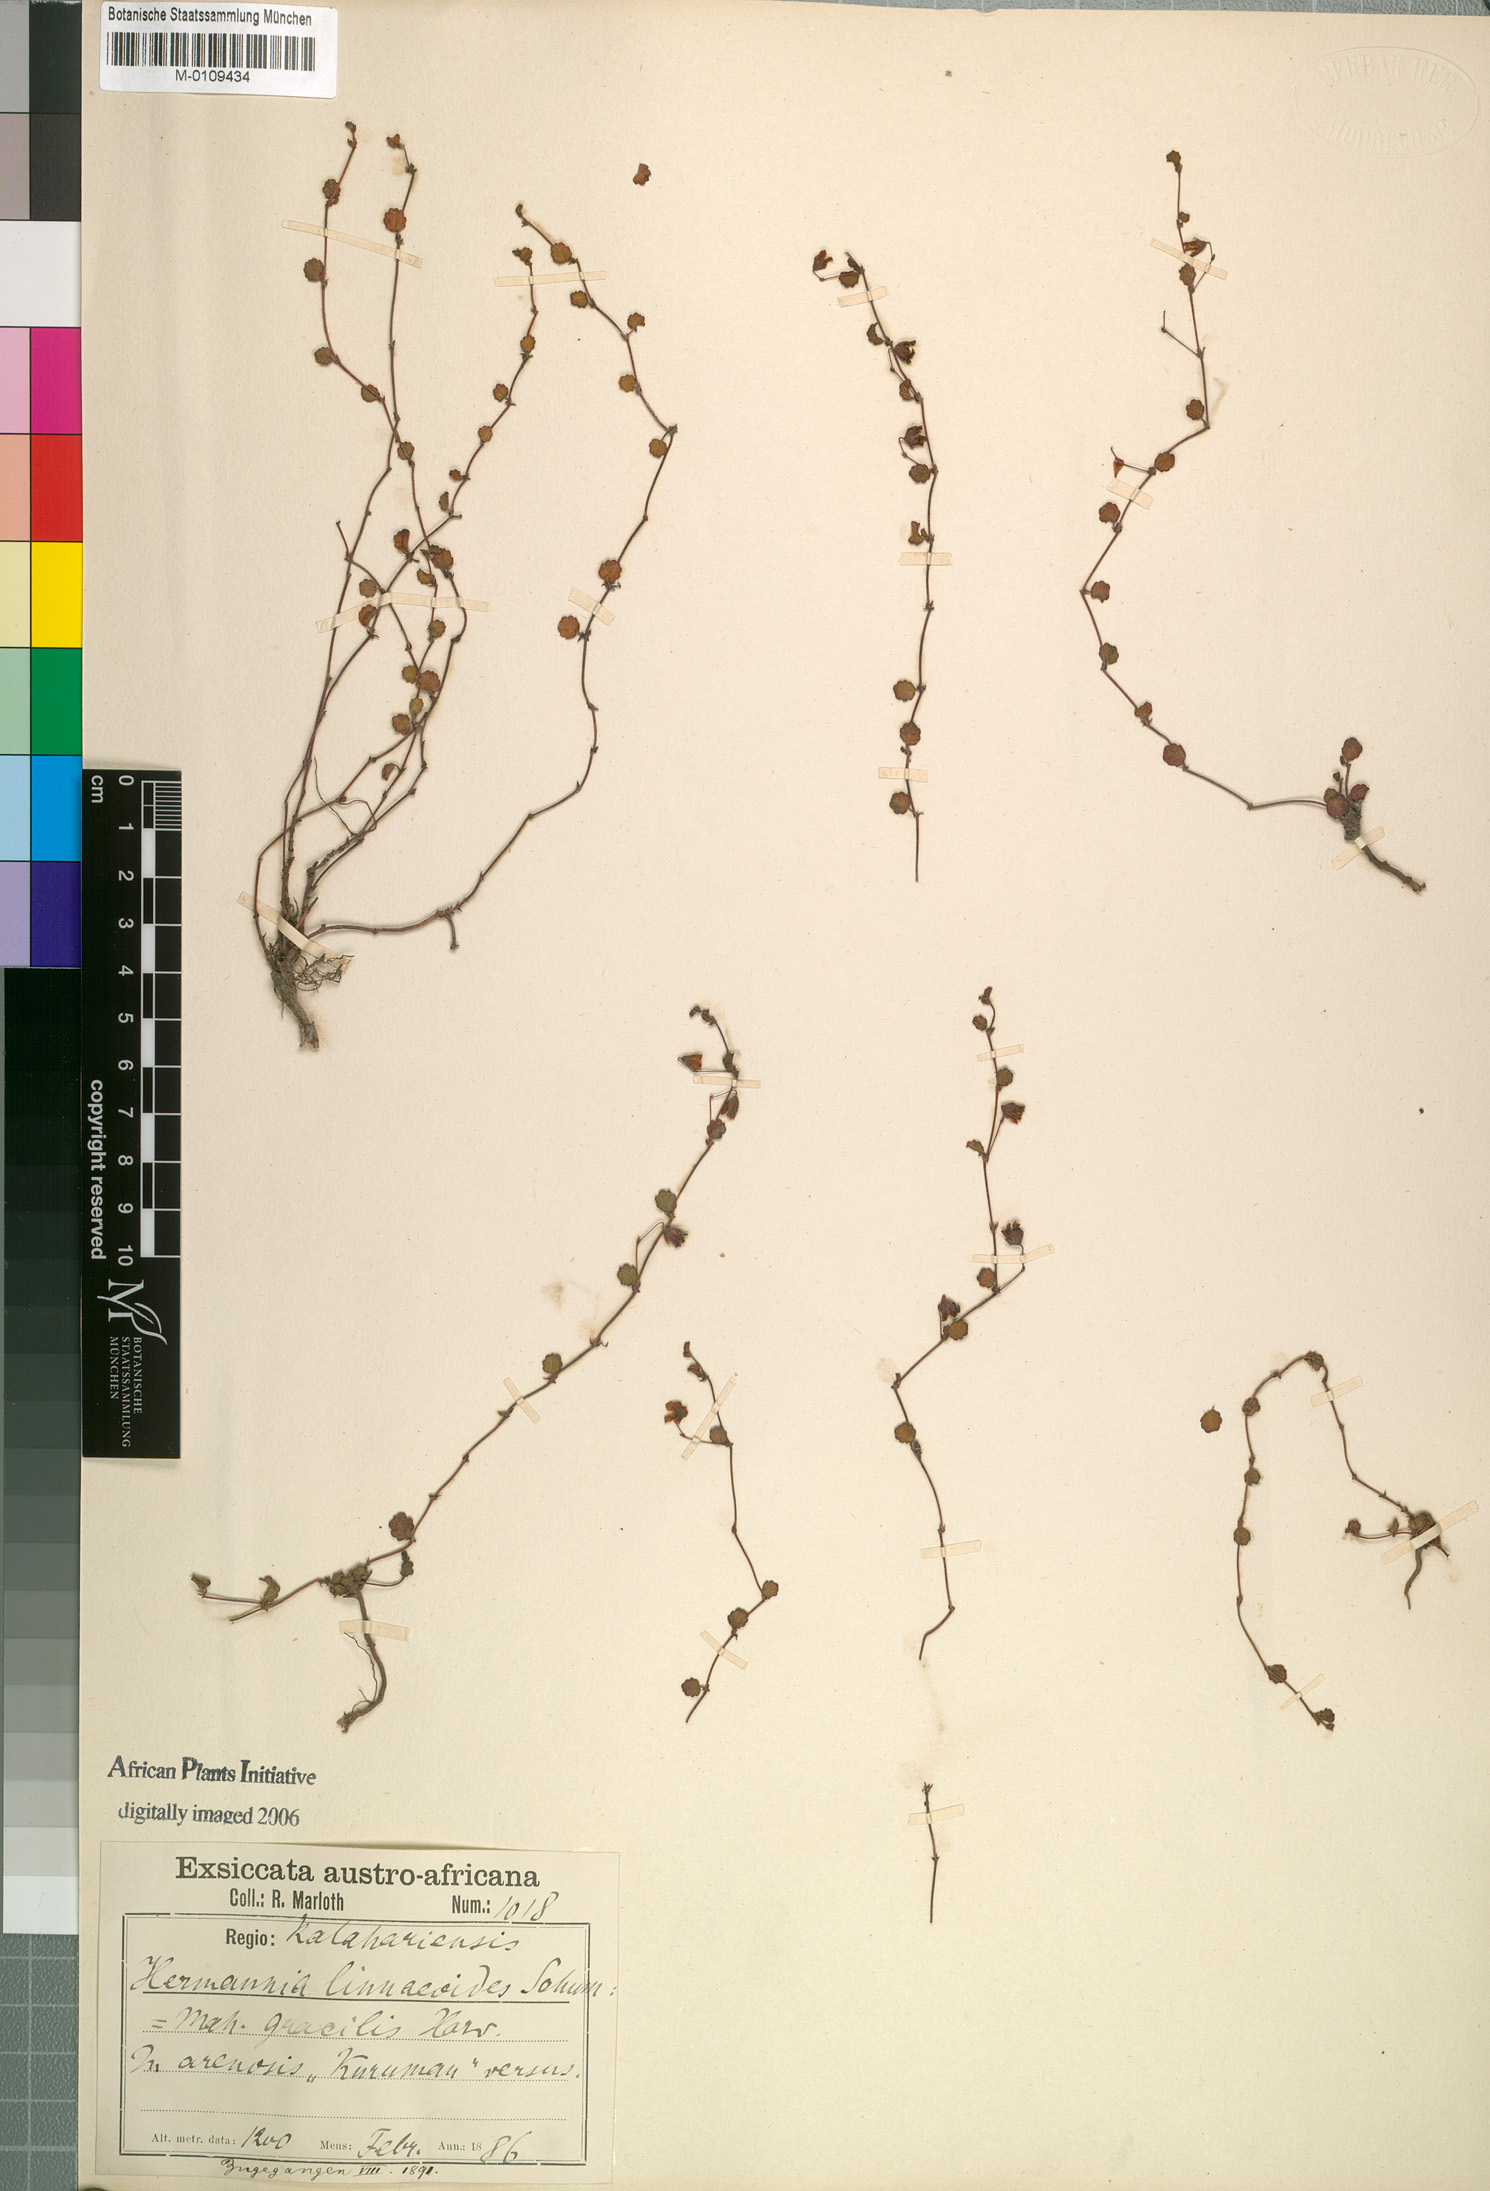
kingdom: Plantae
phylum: Tracheophyta
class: Magnoliopsida
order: Malvales
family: Malvaceae
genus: Hermannia
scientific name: Hermannia linnaeoides
